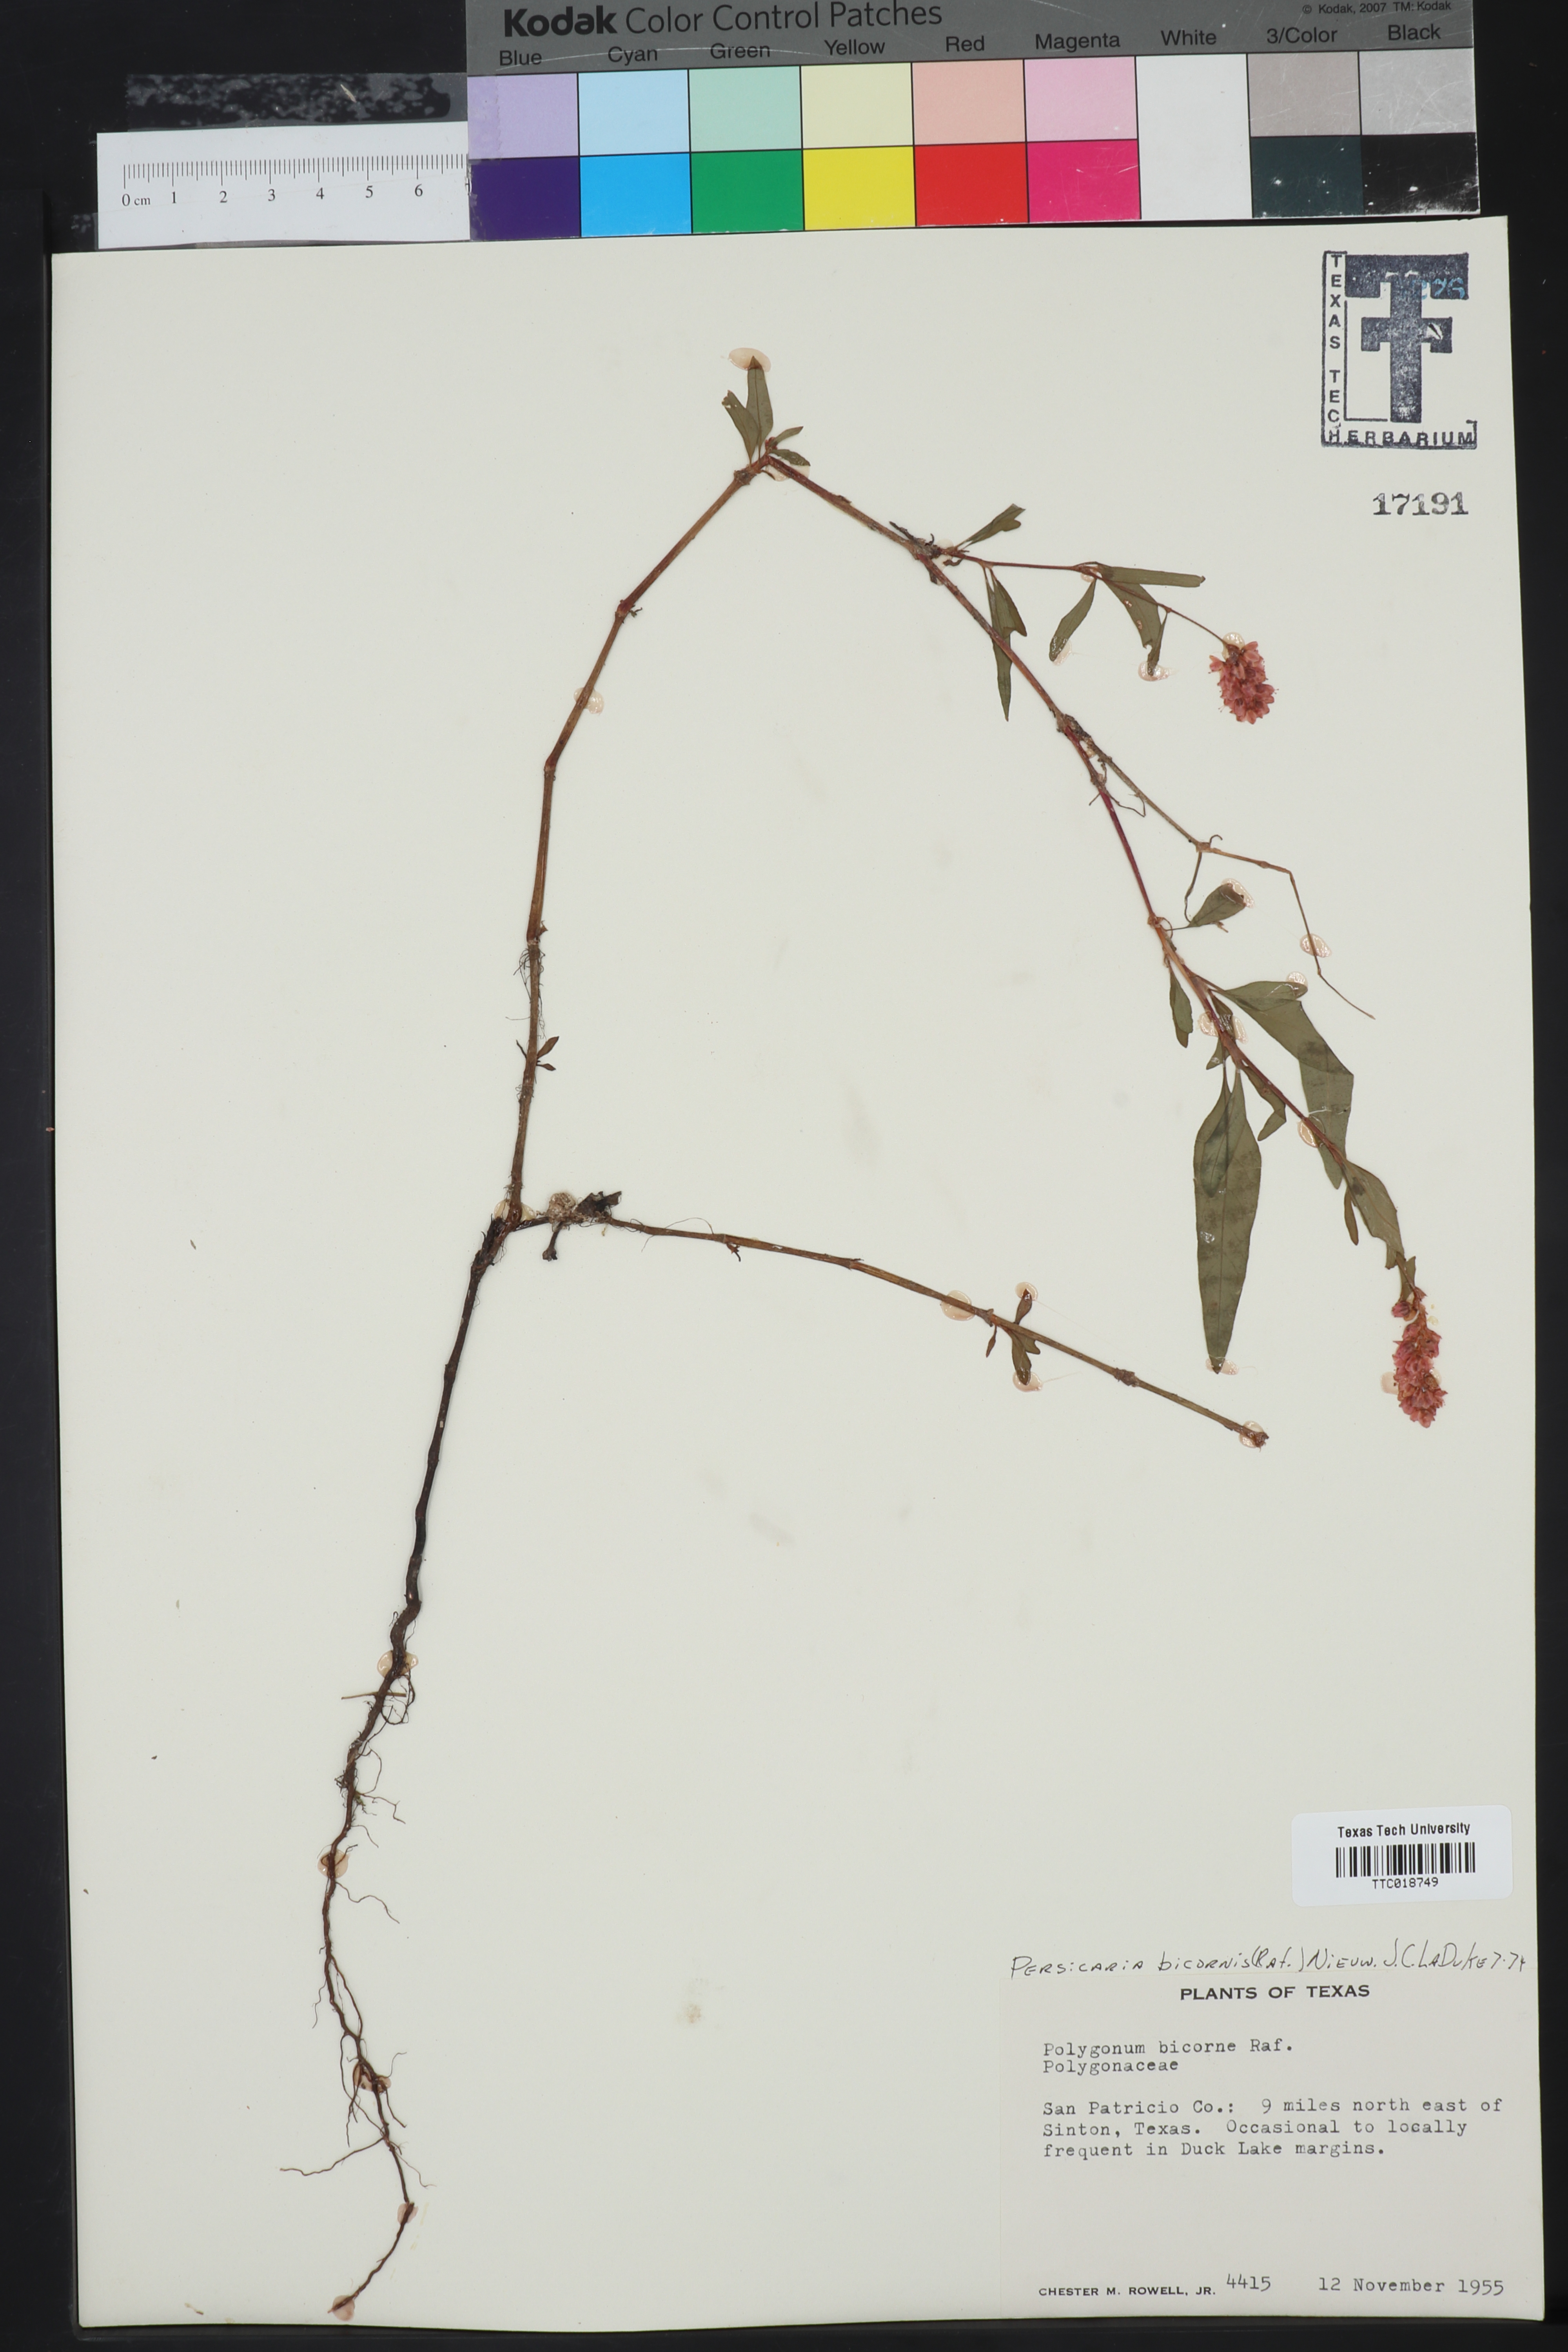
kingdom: Plantae
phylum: Tracheophyta
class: Magnoliopsida
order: Caryophyllales
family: Polygonaceae
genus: Persicaria
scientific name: Persicaria bicornis
